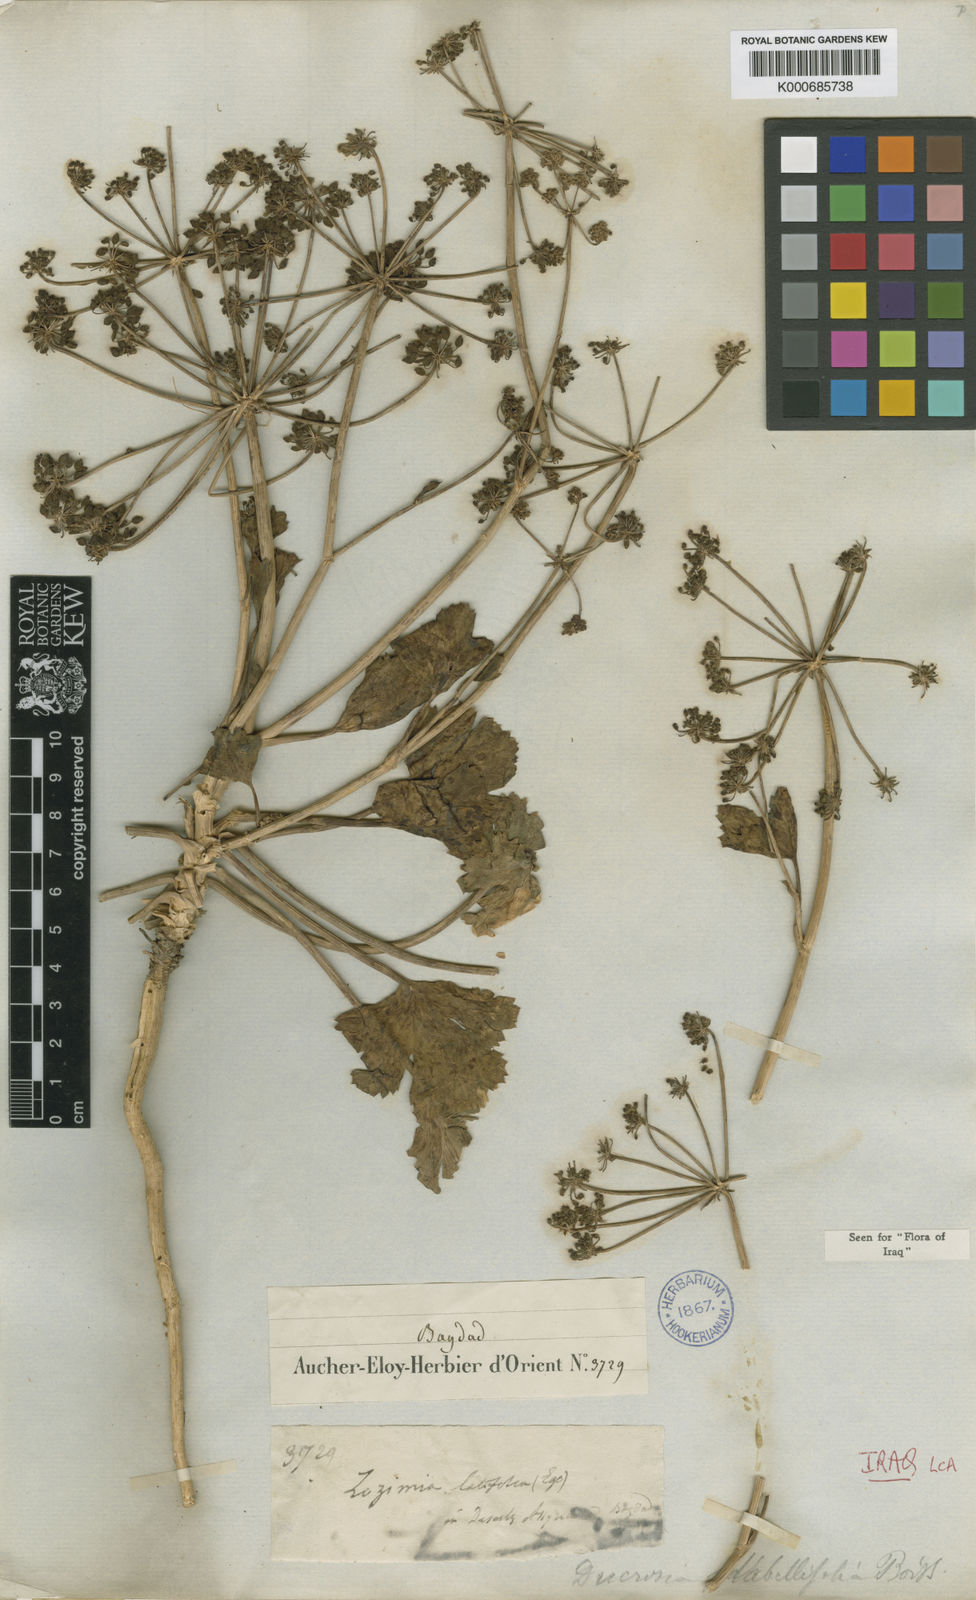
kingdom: Plantae
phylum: Tracheophyta
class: Magnoliopsida
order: Apiales
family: Apiaceae
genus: Ducrosia
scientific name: Ducrosia flabellifolia
